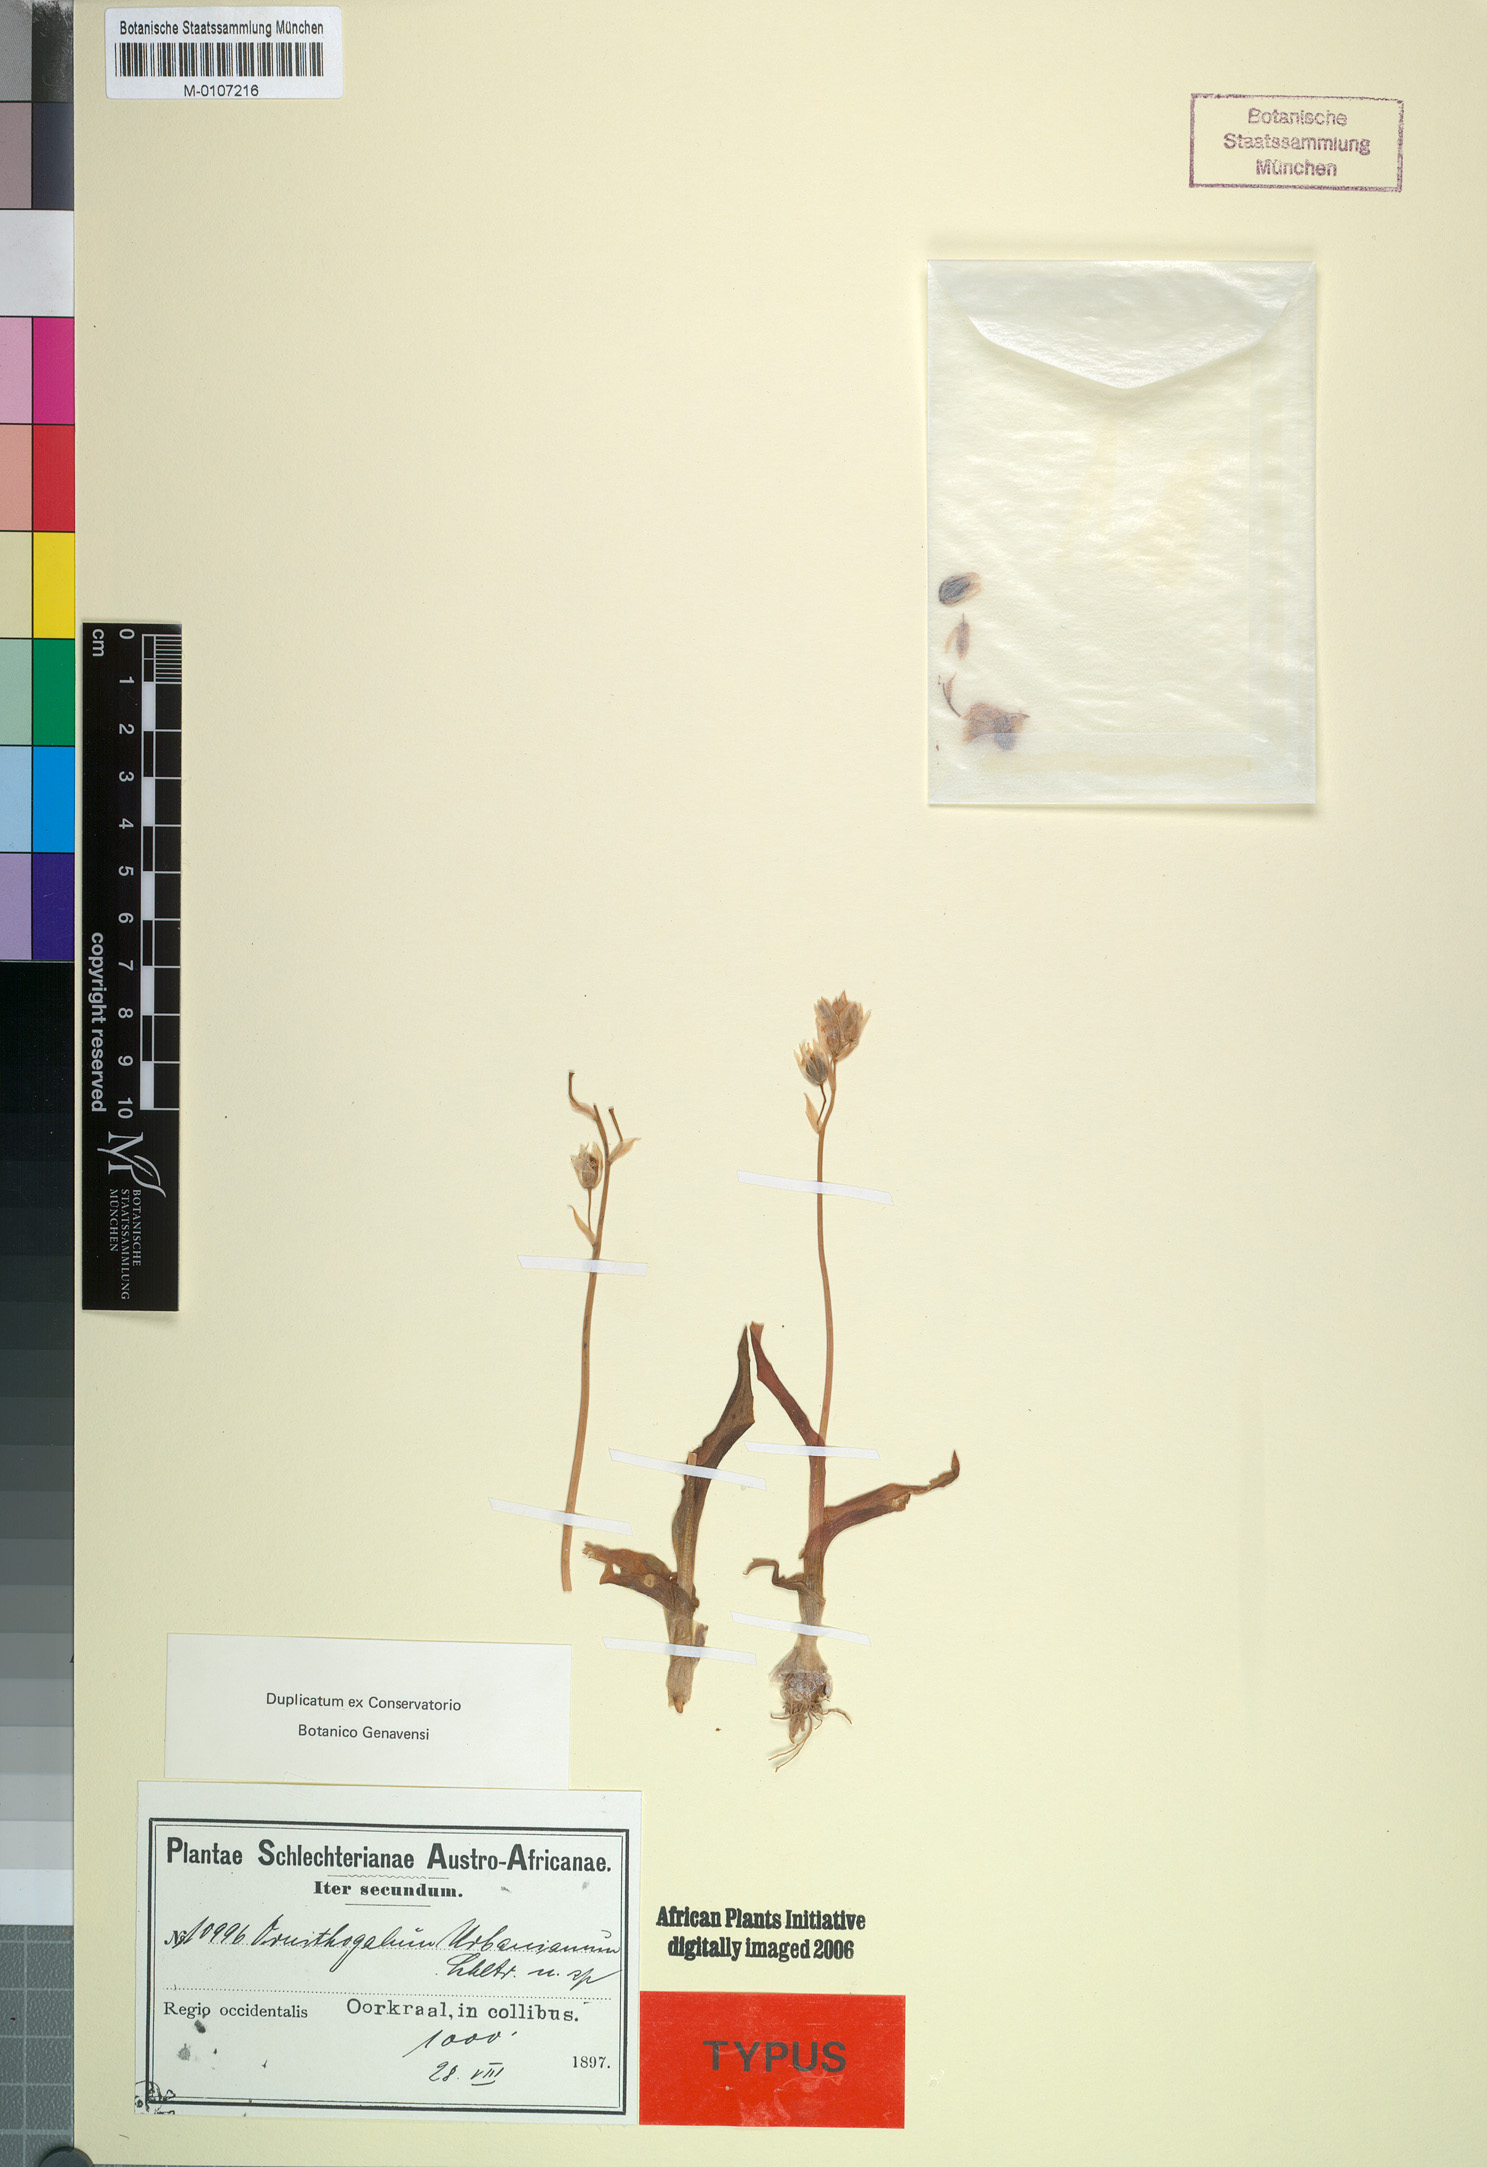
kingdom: Plantae
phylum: Tracheophyta
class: Liliopsida
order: Asparagales
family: Asparagaceae
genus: Ornithogalum
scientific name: Ornithogalum hispidum
